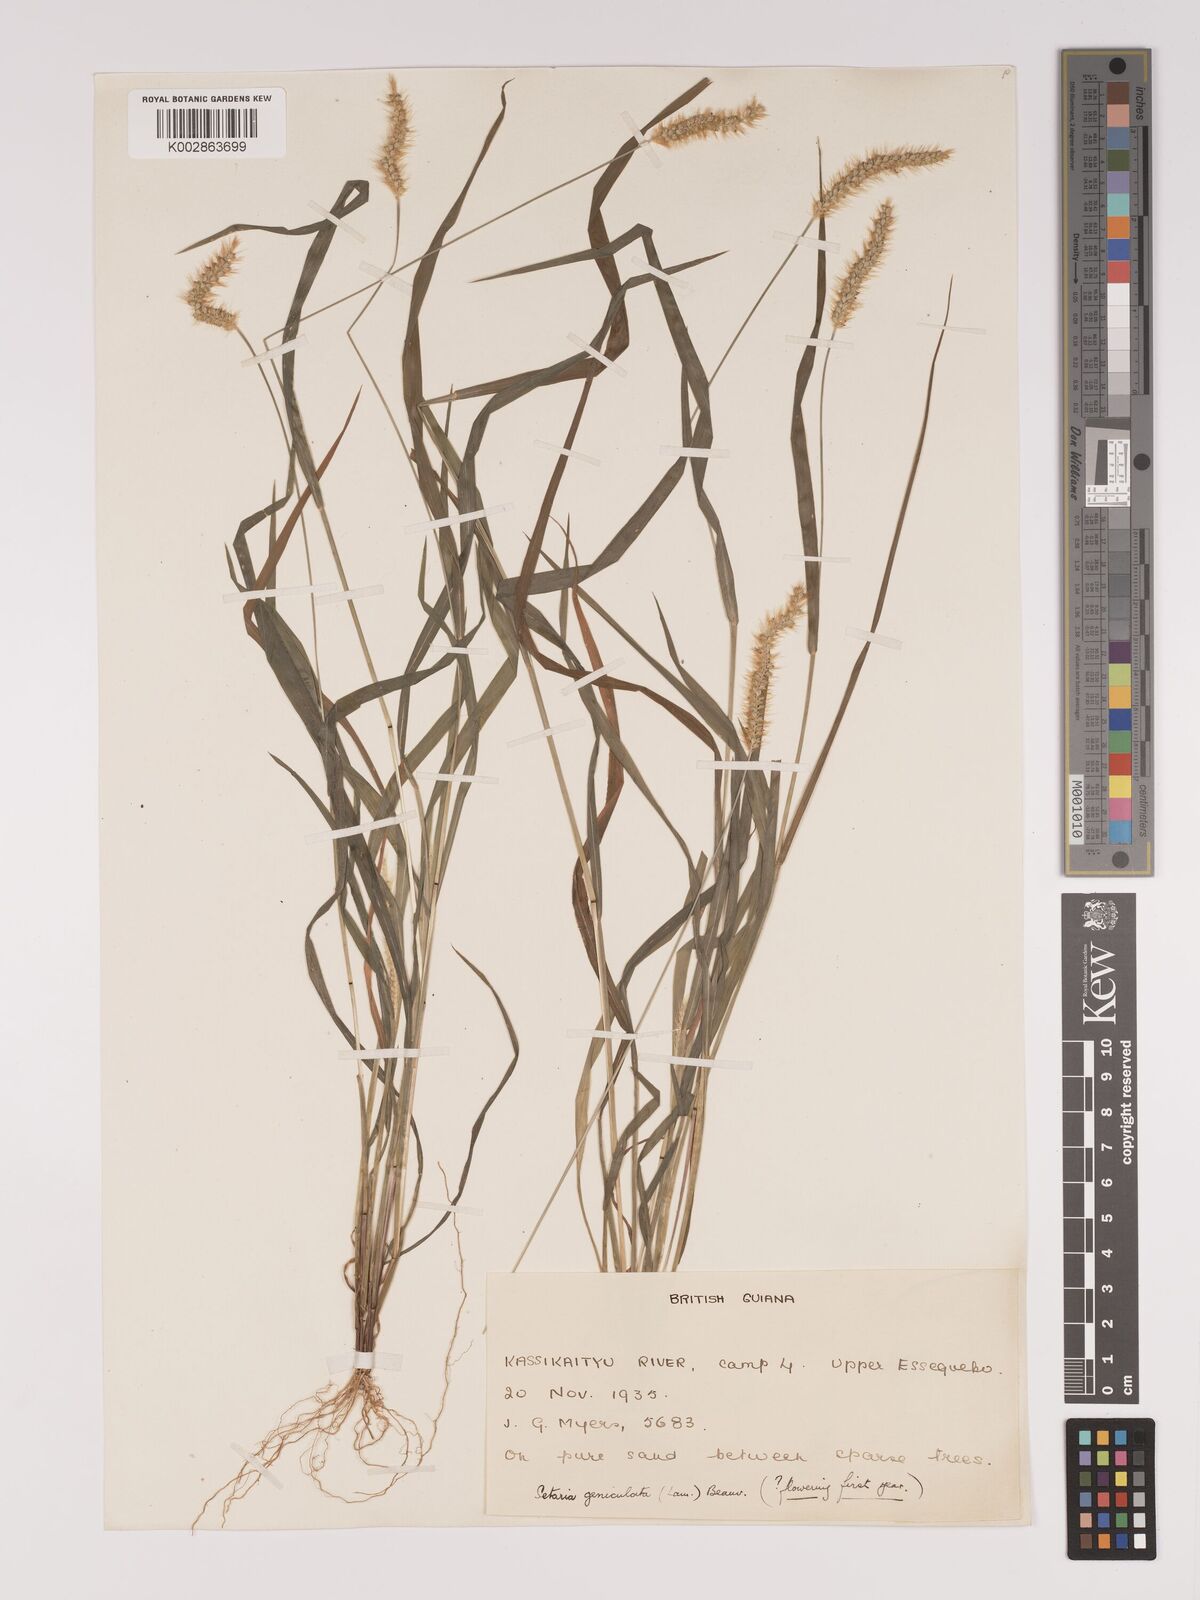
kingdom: Plantae
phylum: Tracheophyta
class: Liliopsida
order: Poales
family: Poaceae
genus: Setaria
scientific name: Setaria parviflora
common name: Knotroot bristle-grass
